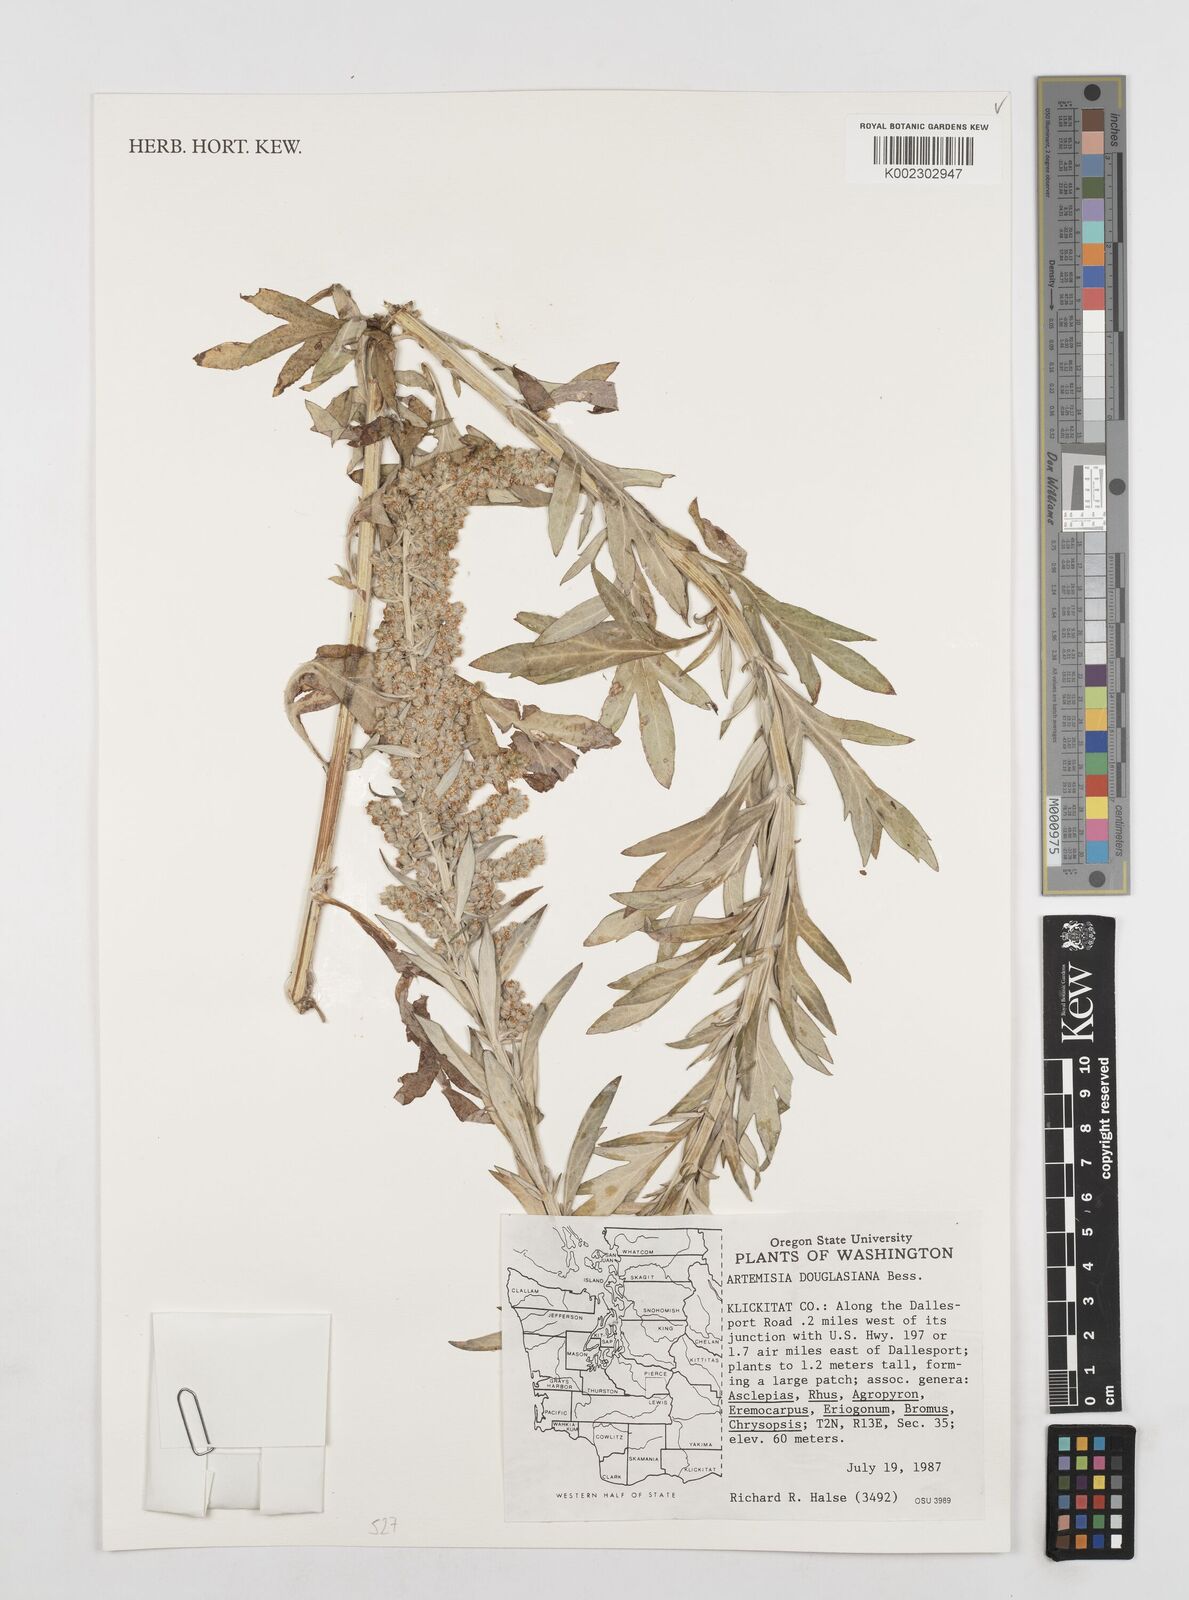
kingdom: Plantae
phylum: Tracheophyta
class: Magnoliopsida
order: Asterales
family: Asteraceae
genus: Artemisia
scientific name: Artemisia douglasiana
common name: Northwest mugwort
